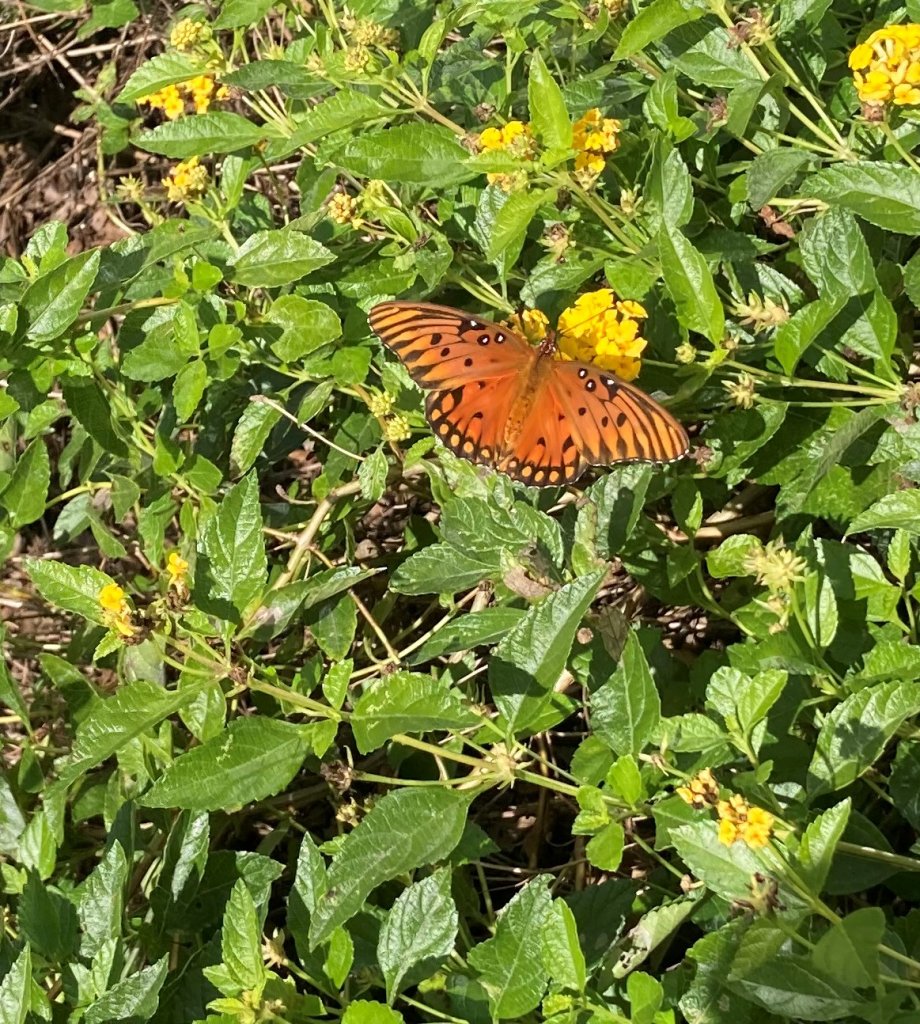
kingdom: Animalia
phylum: Arthropoda
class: Insecta
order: Lepidoptera
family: Nymphalidae
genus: Dione
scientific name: Dione vanillae
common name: Gulf Fritillary
